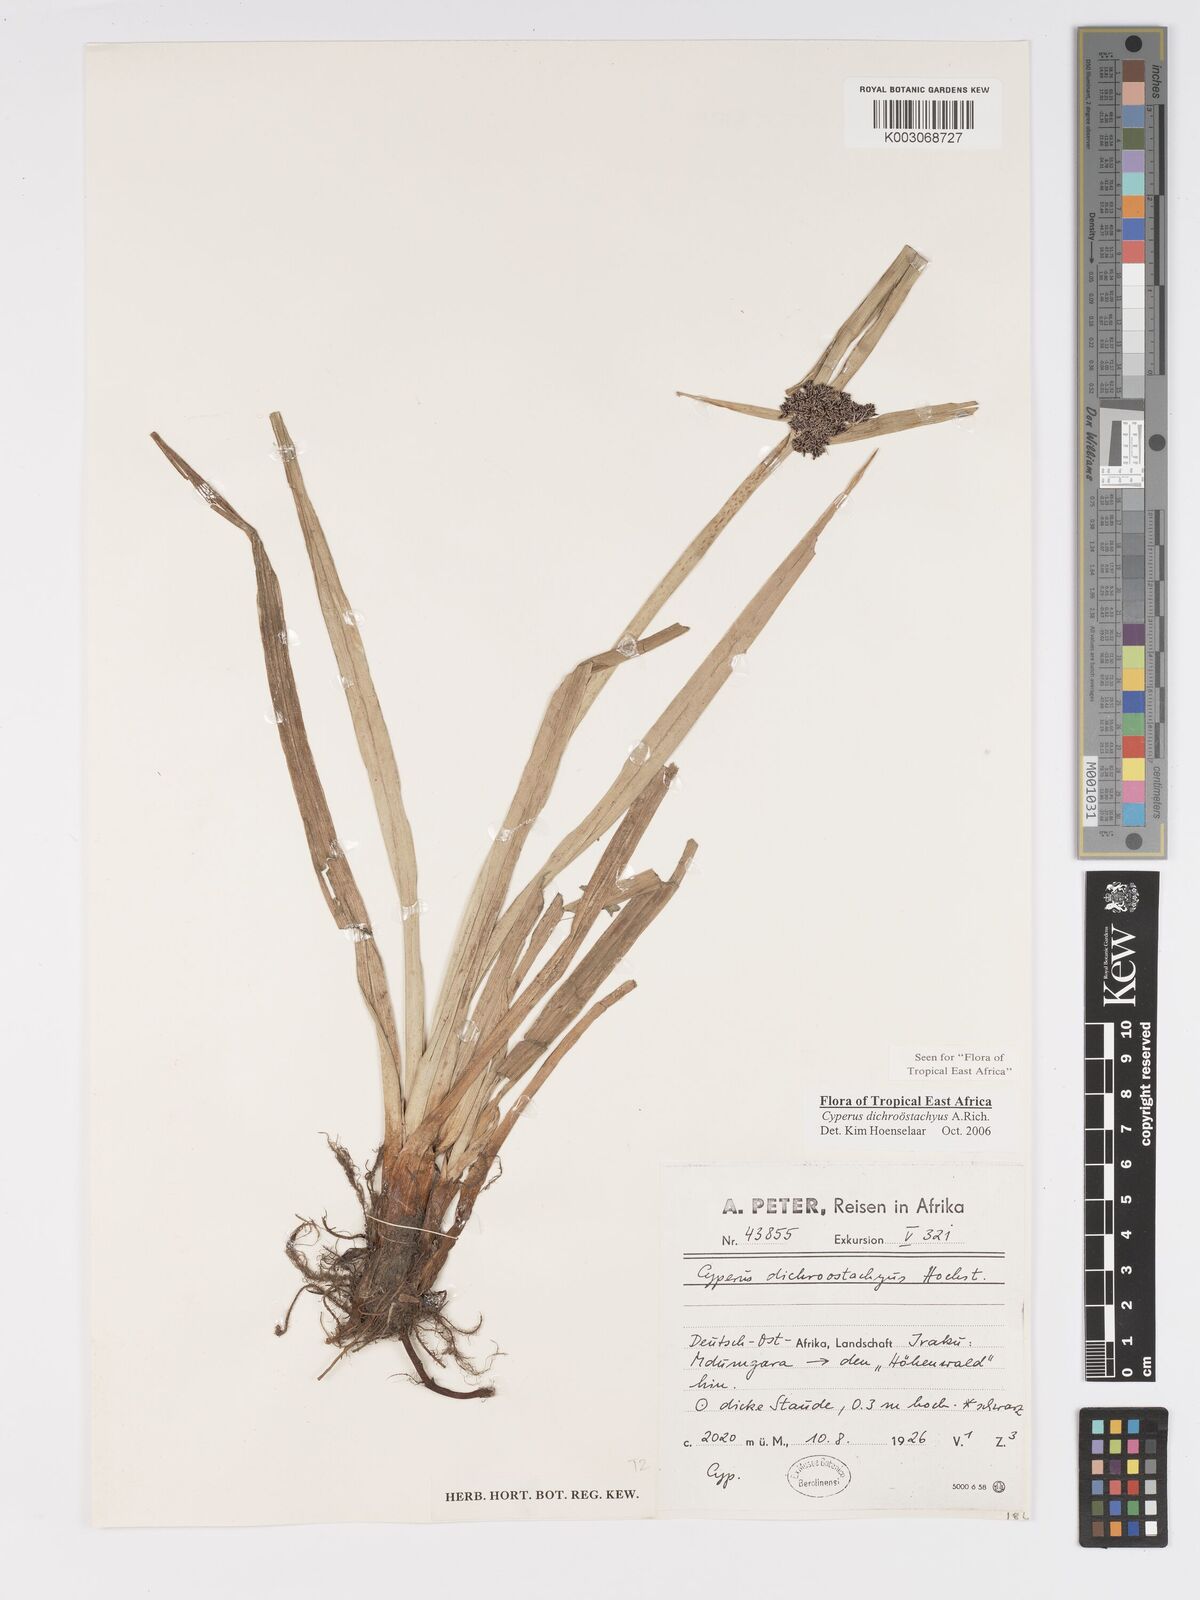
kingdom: Plantae
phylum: Tracheophyta
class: Liliopsida
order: Poales
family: Cyperaceae
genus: Cyperus
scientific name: Cyperus dichrostachyus
